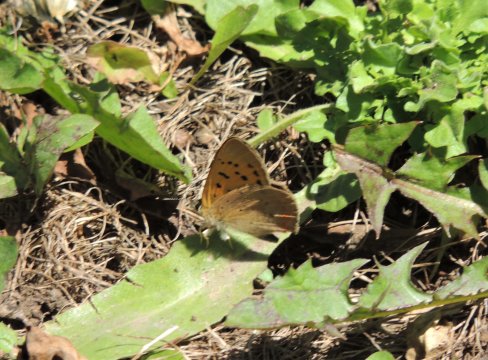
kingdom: Animalia
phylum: Arthropoda
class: Insecta
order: Lepidoptera
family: Sesiidae
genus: Sesia
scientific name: Sesia Lycaena helloides
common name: Purplish Copper
